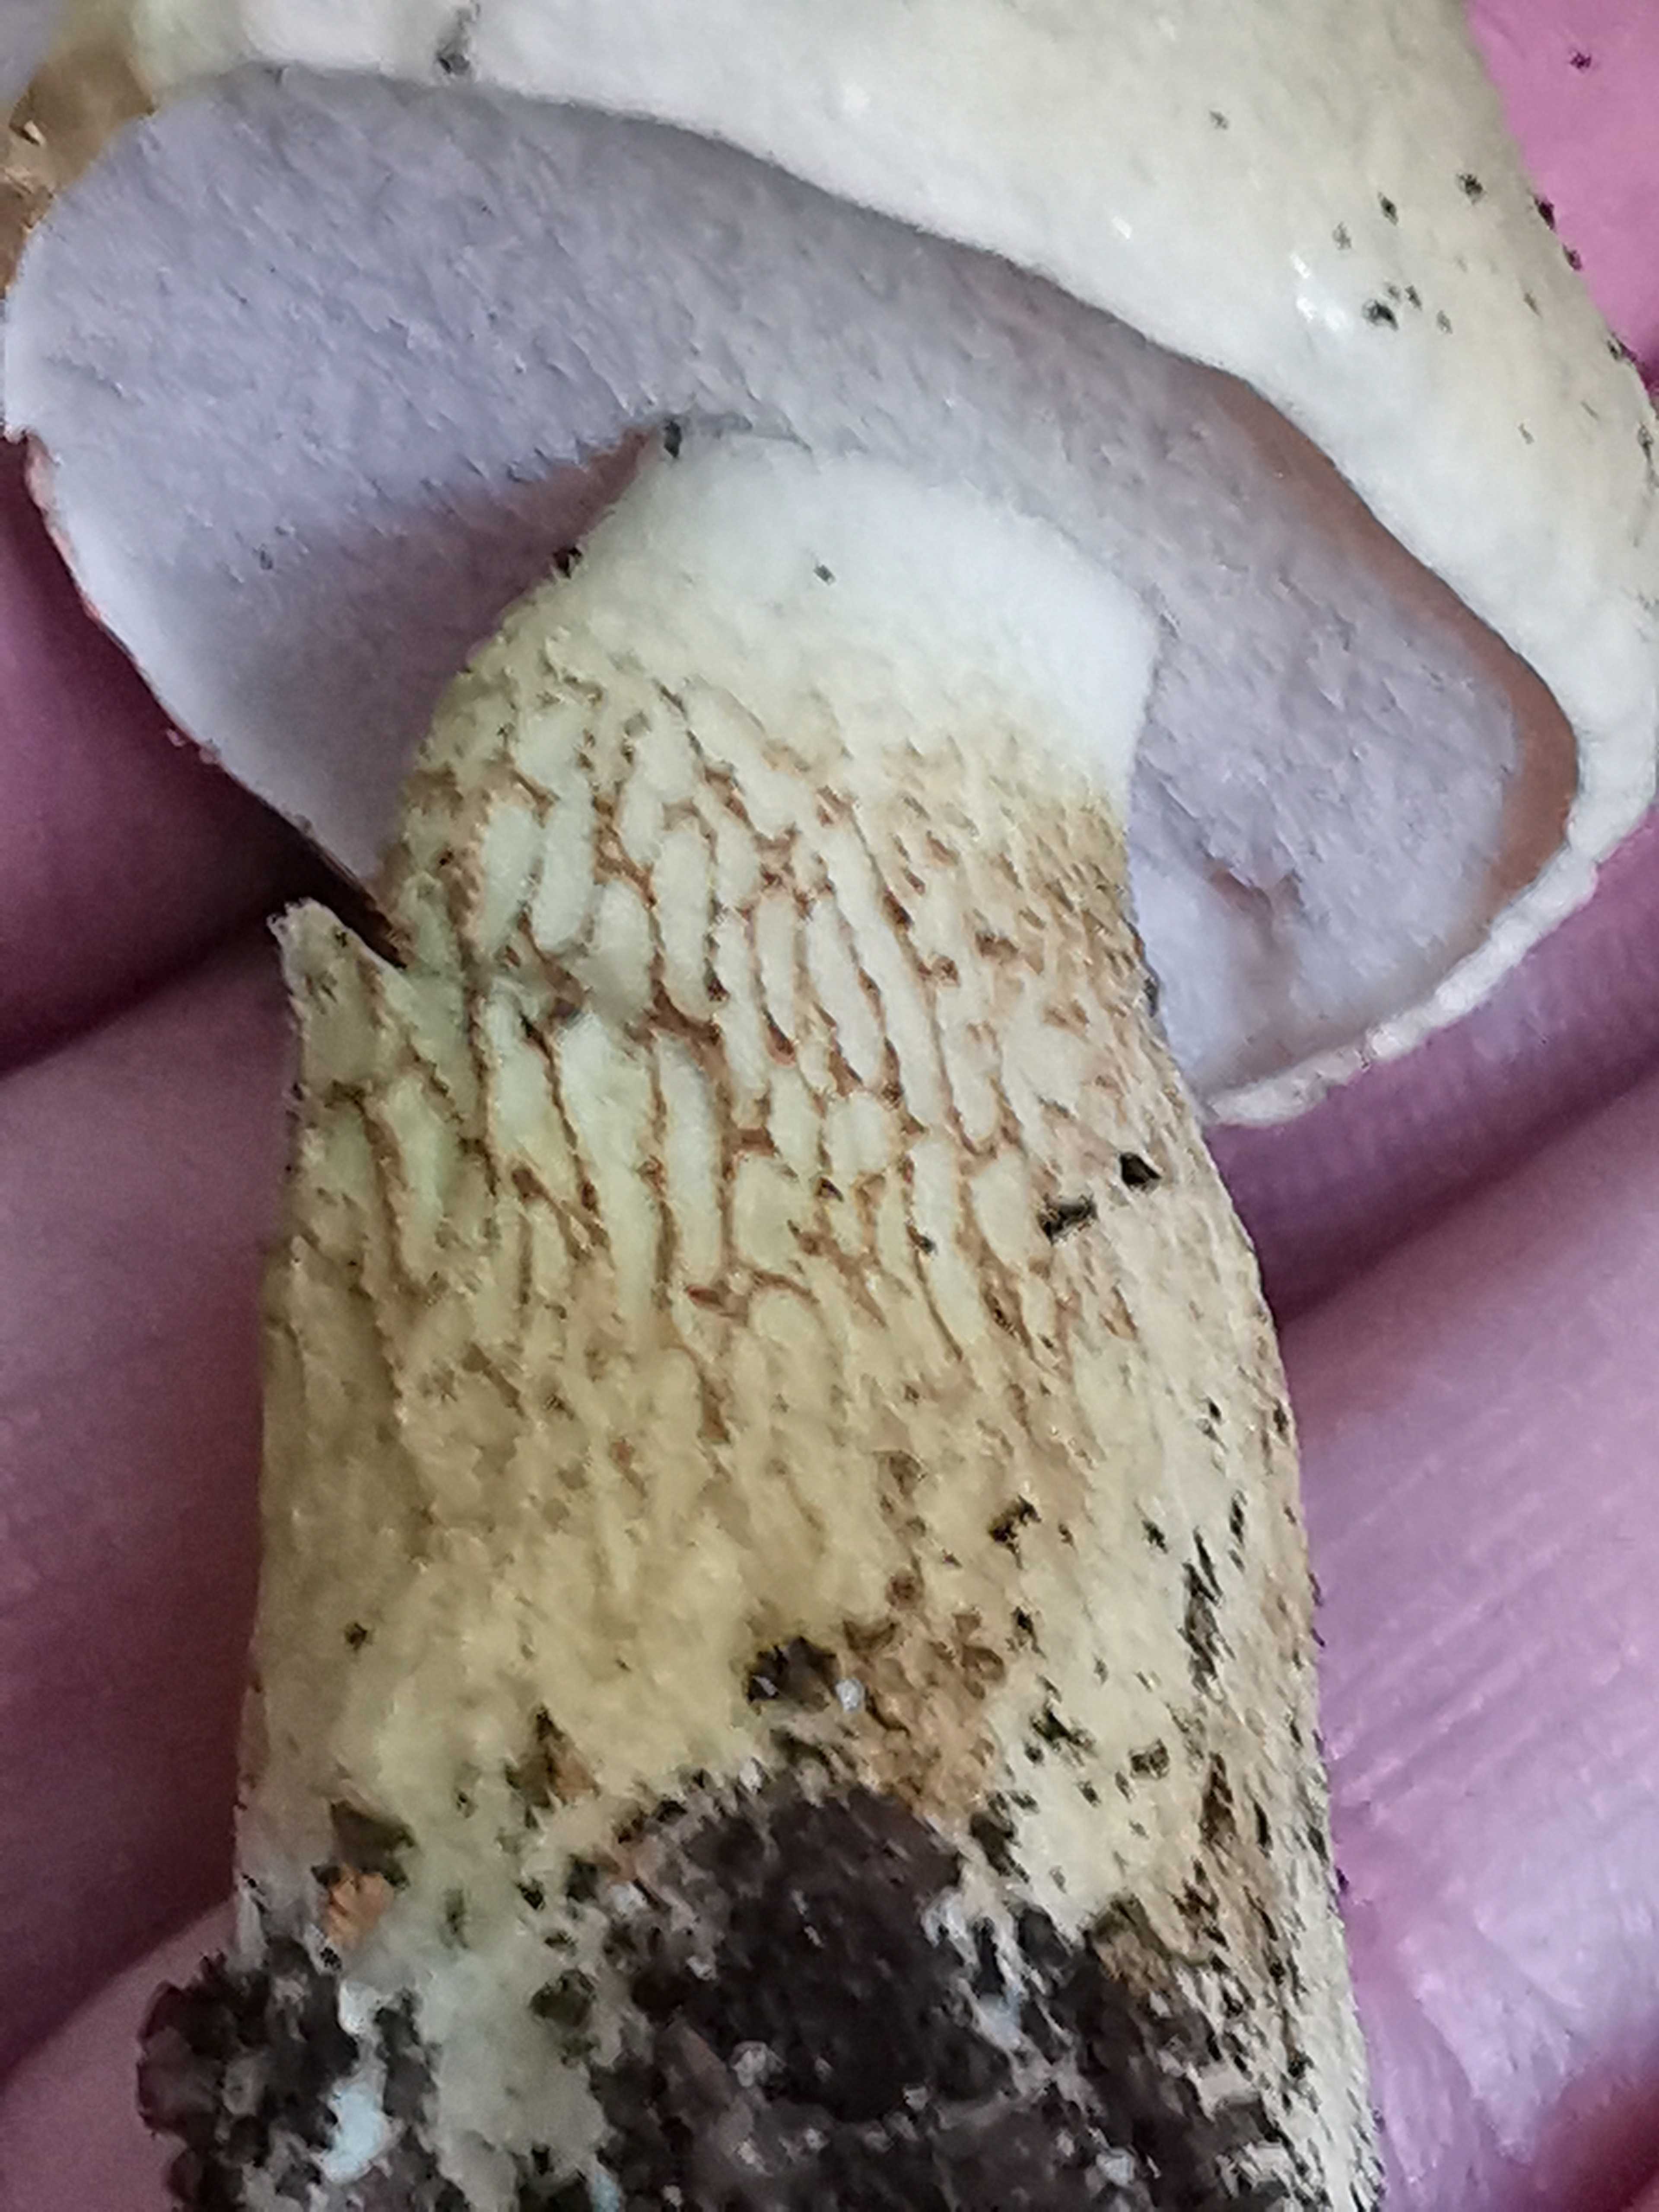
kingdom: Fungi
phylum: Basidiomycota
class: Agaricomycetes
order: Boletales
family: Boletaceae
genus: Tylopilus
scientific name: Tylopilus felleus
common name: galderørhat
